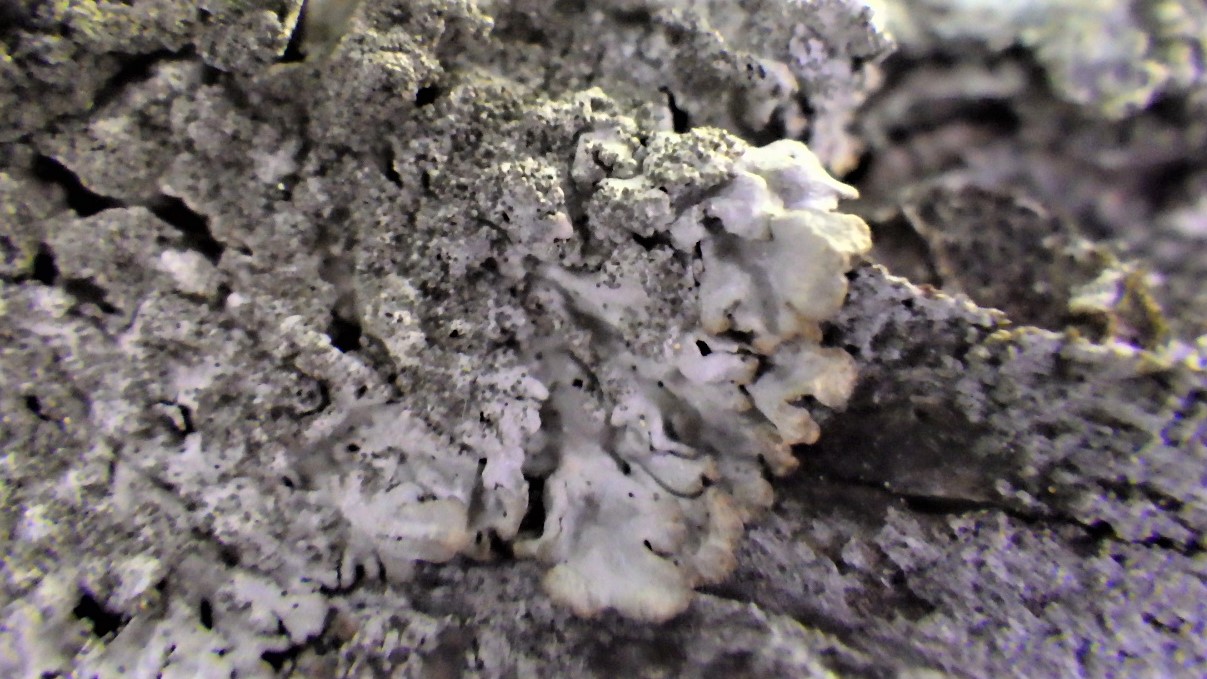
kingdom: Fungi
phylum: Ascomycota
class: Lecanoromycetes
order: Lecanorales
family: Parmeliaceae
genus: Imshaugia
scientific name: Imshaugia aleurites
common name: kliddet stolpelav
